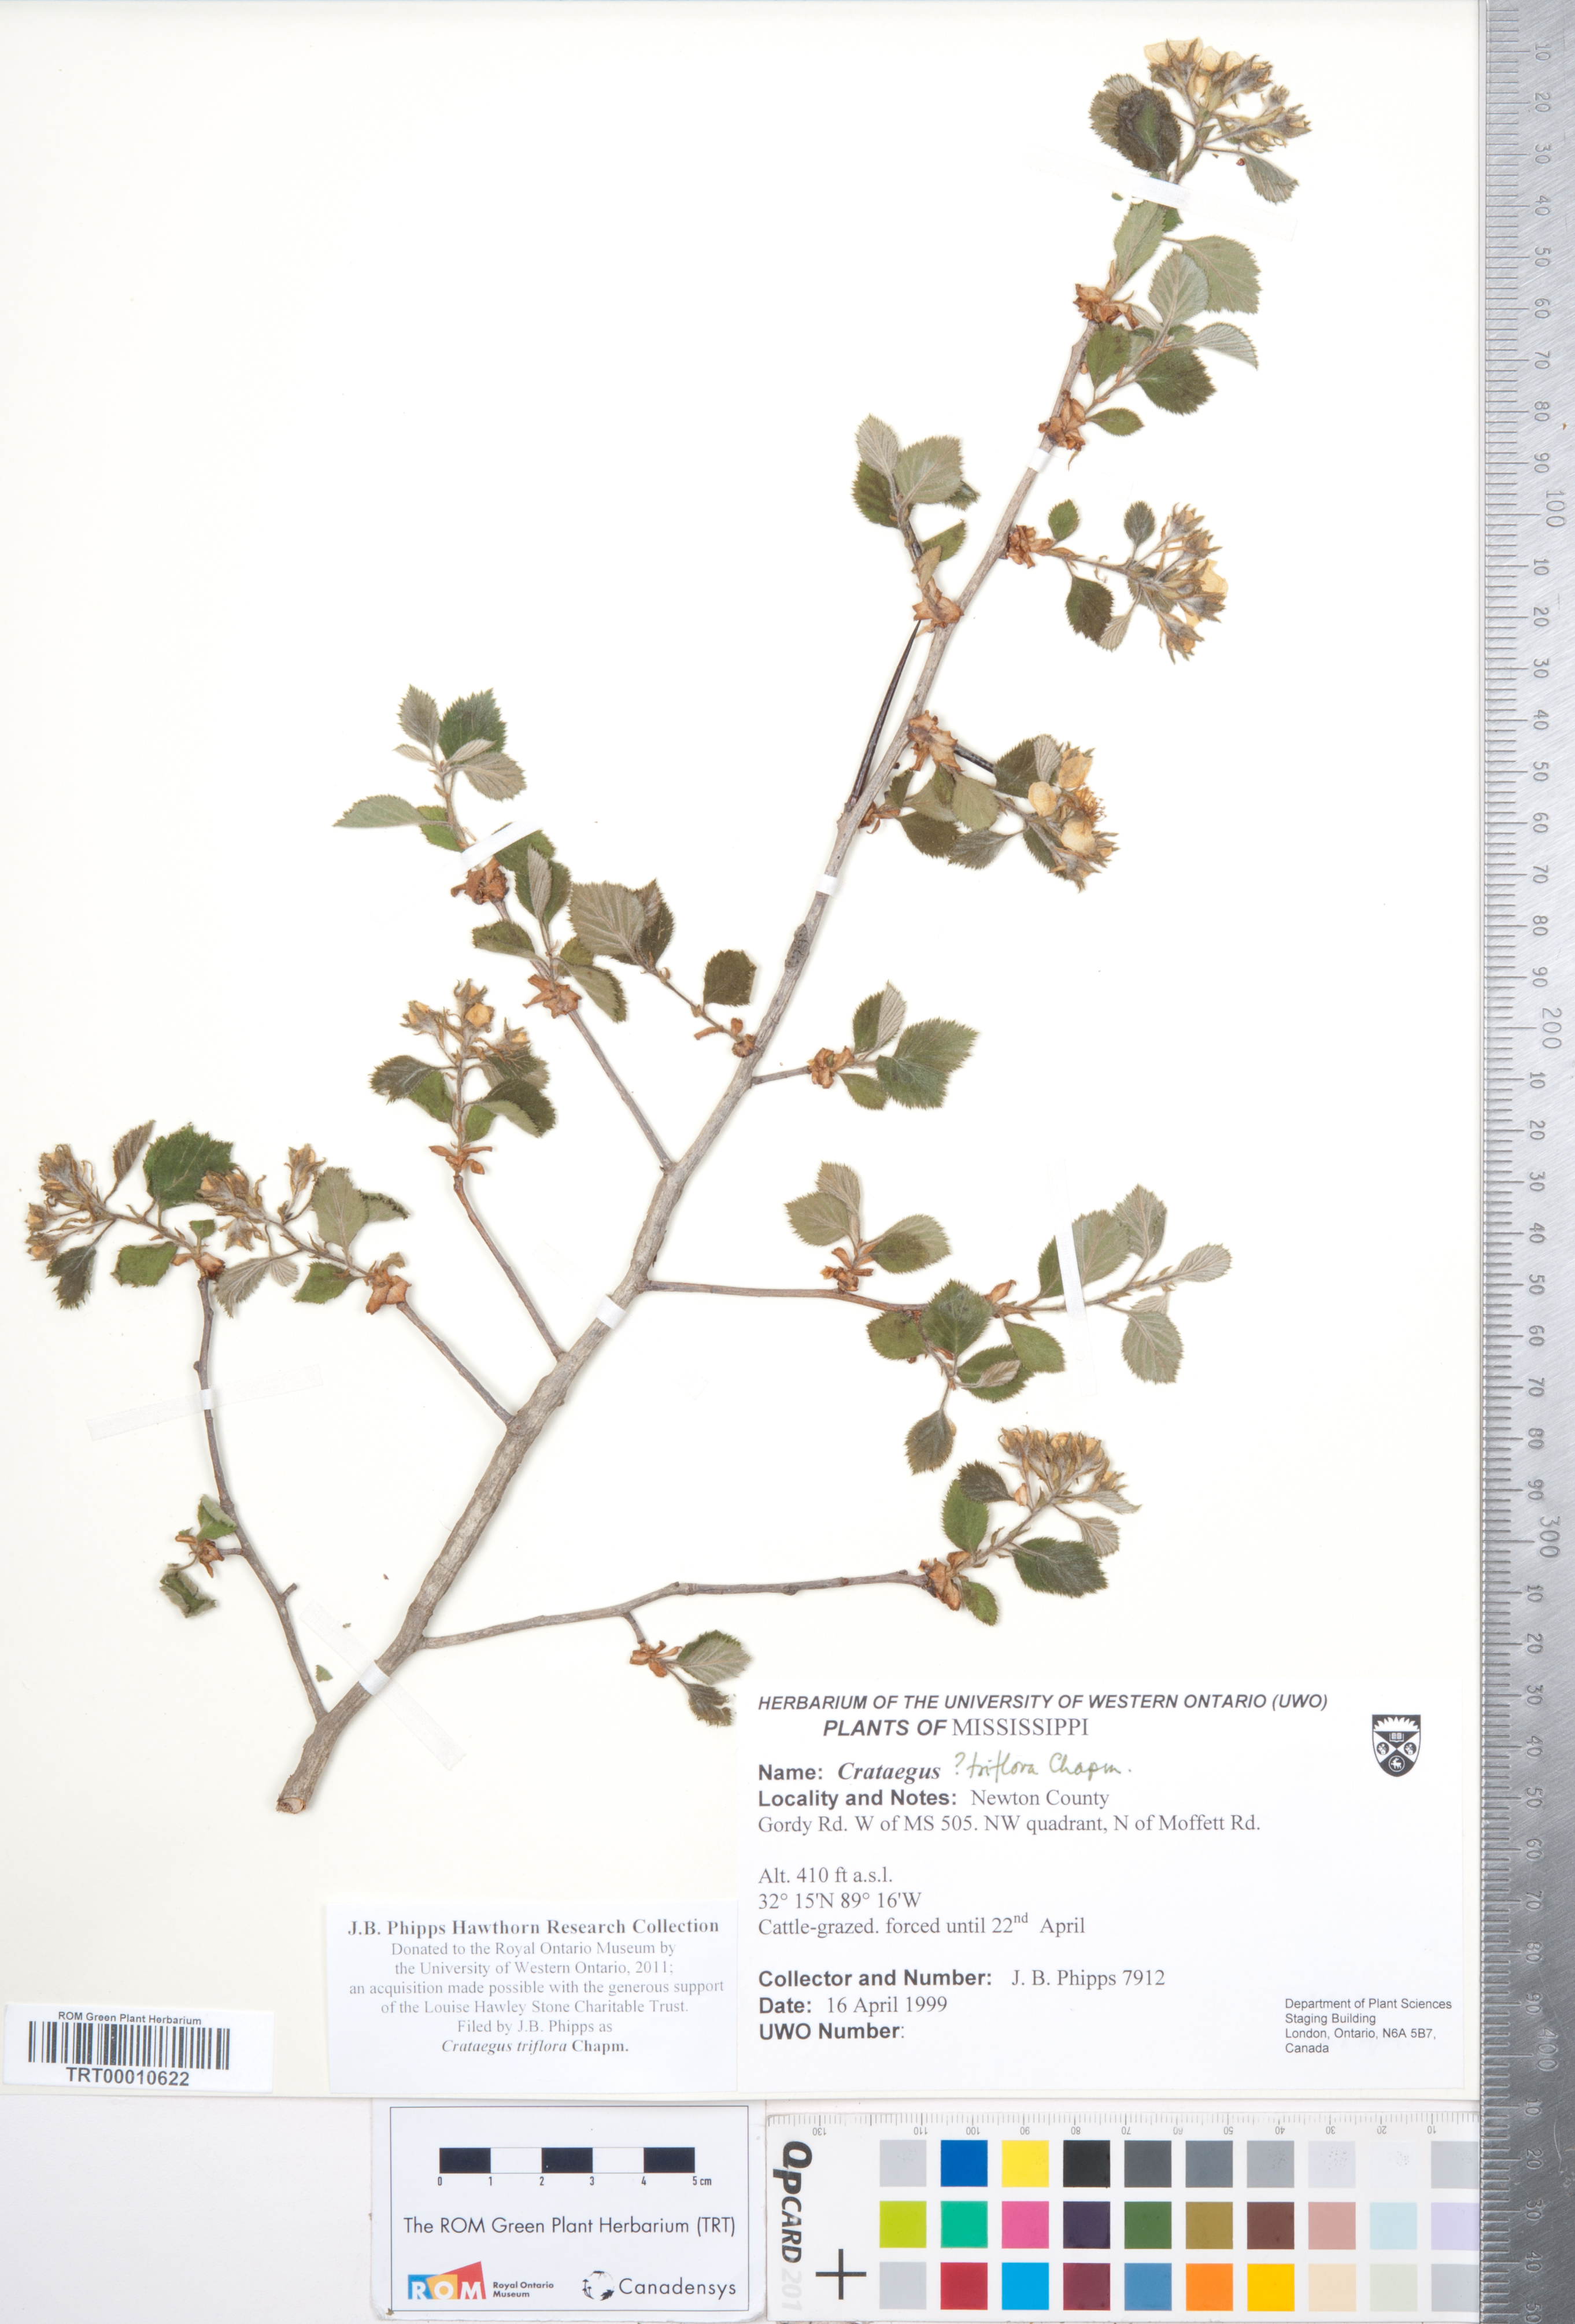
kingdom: Plantae
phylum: Tracheophyta
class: Magnoliopsida
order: Rosales
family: Rosaceae
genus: Crataegus
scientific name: Crataegus triflora
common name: Three-flower hawthorn
